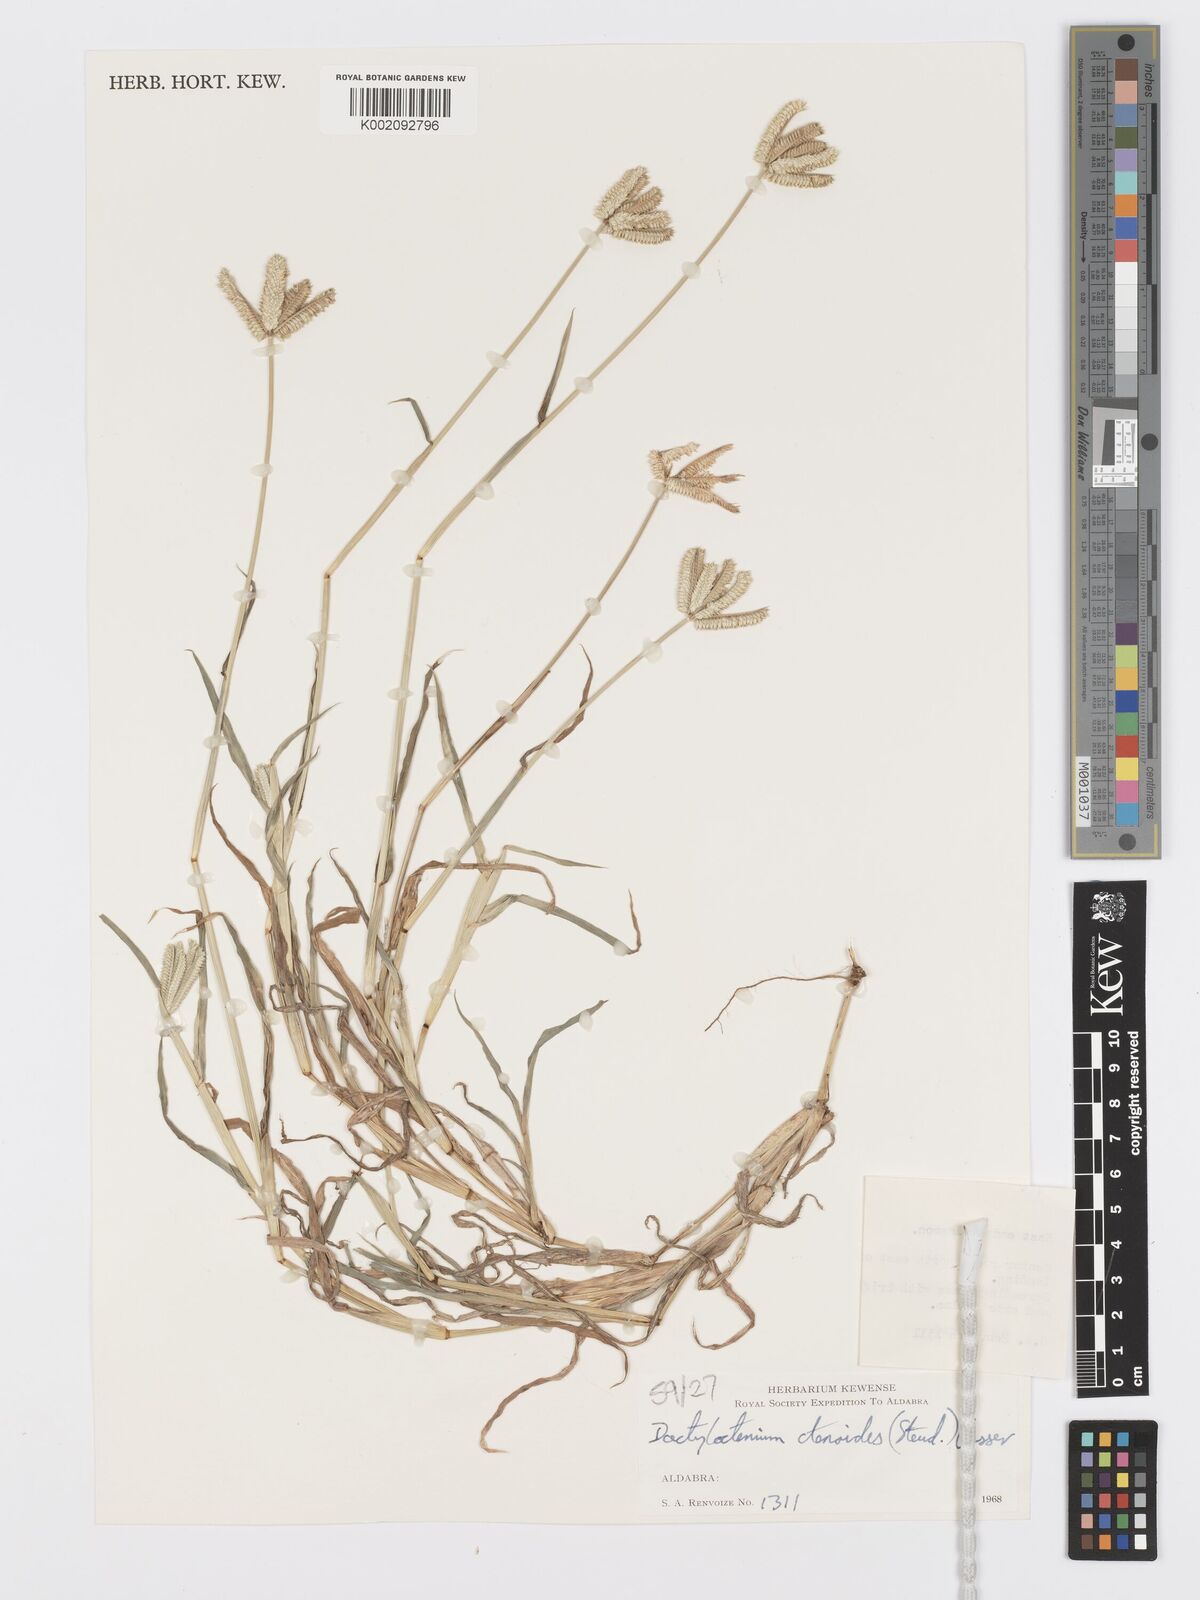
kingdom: Plantae
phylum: Tracheophyta
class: Liliopsida
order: Poales
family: Poaceae
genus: Dactyloctenium
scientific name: Dactyloctenium ctenoides
